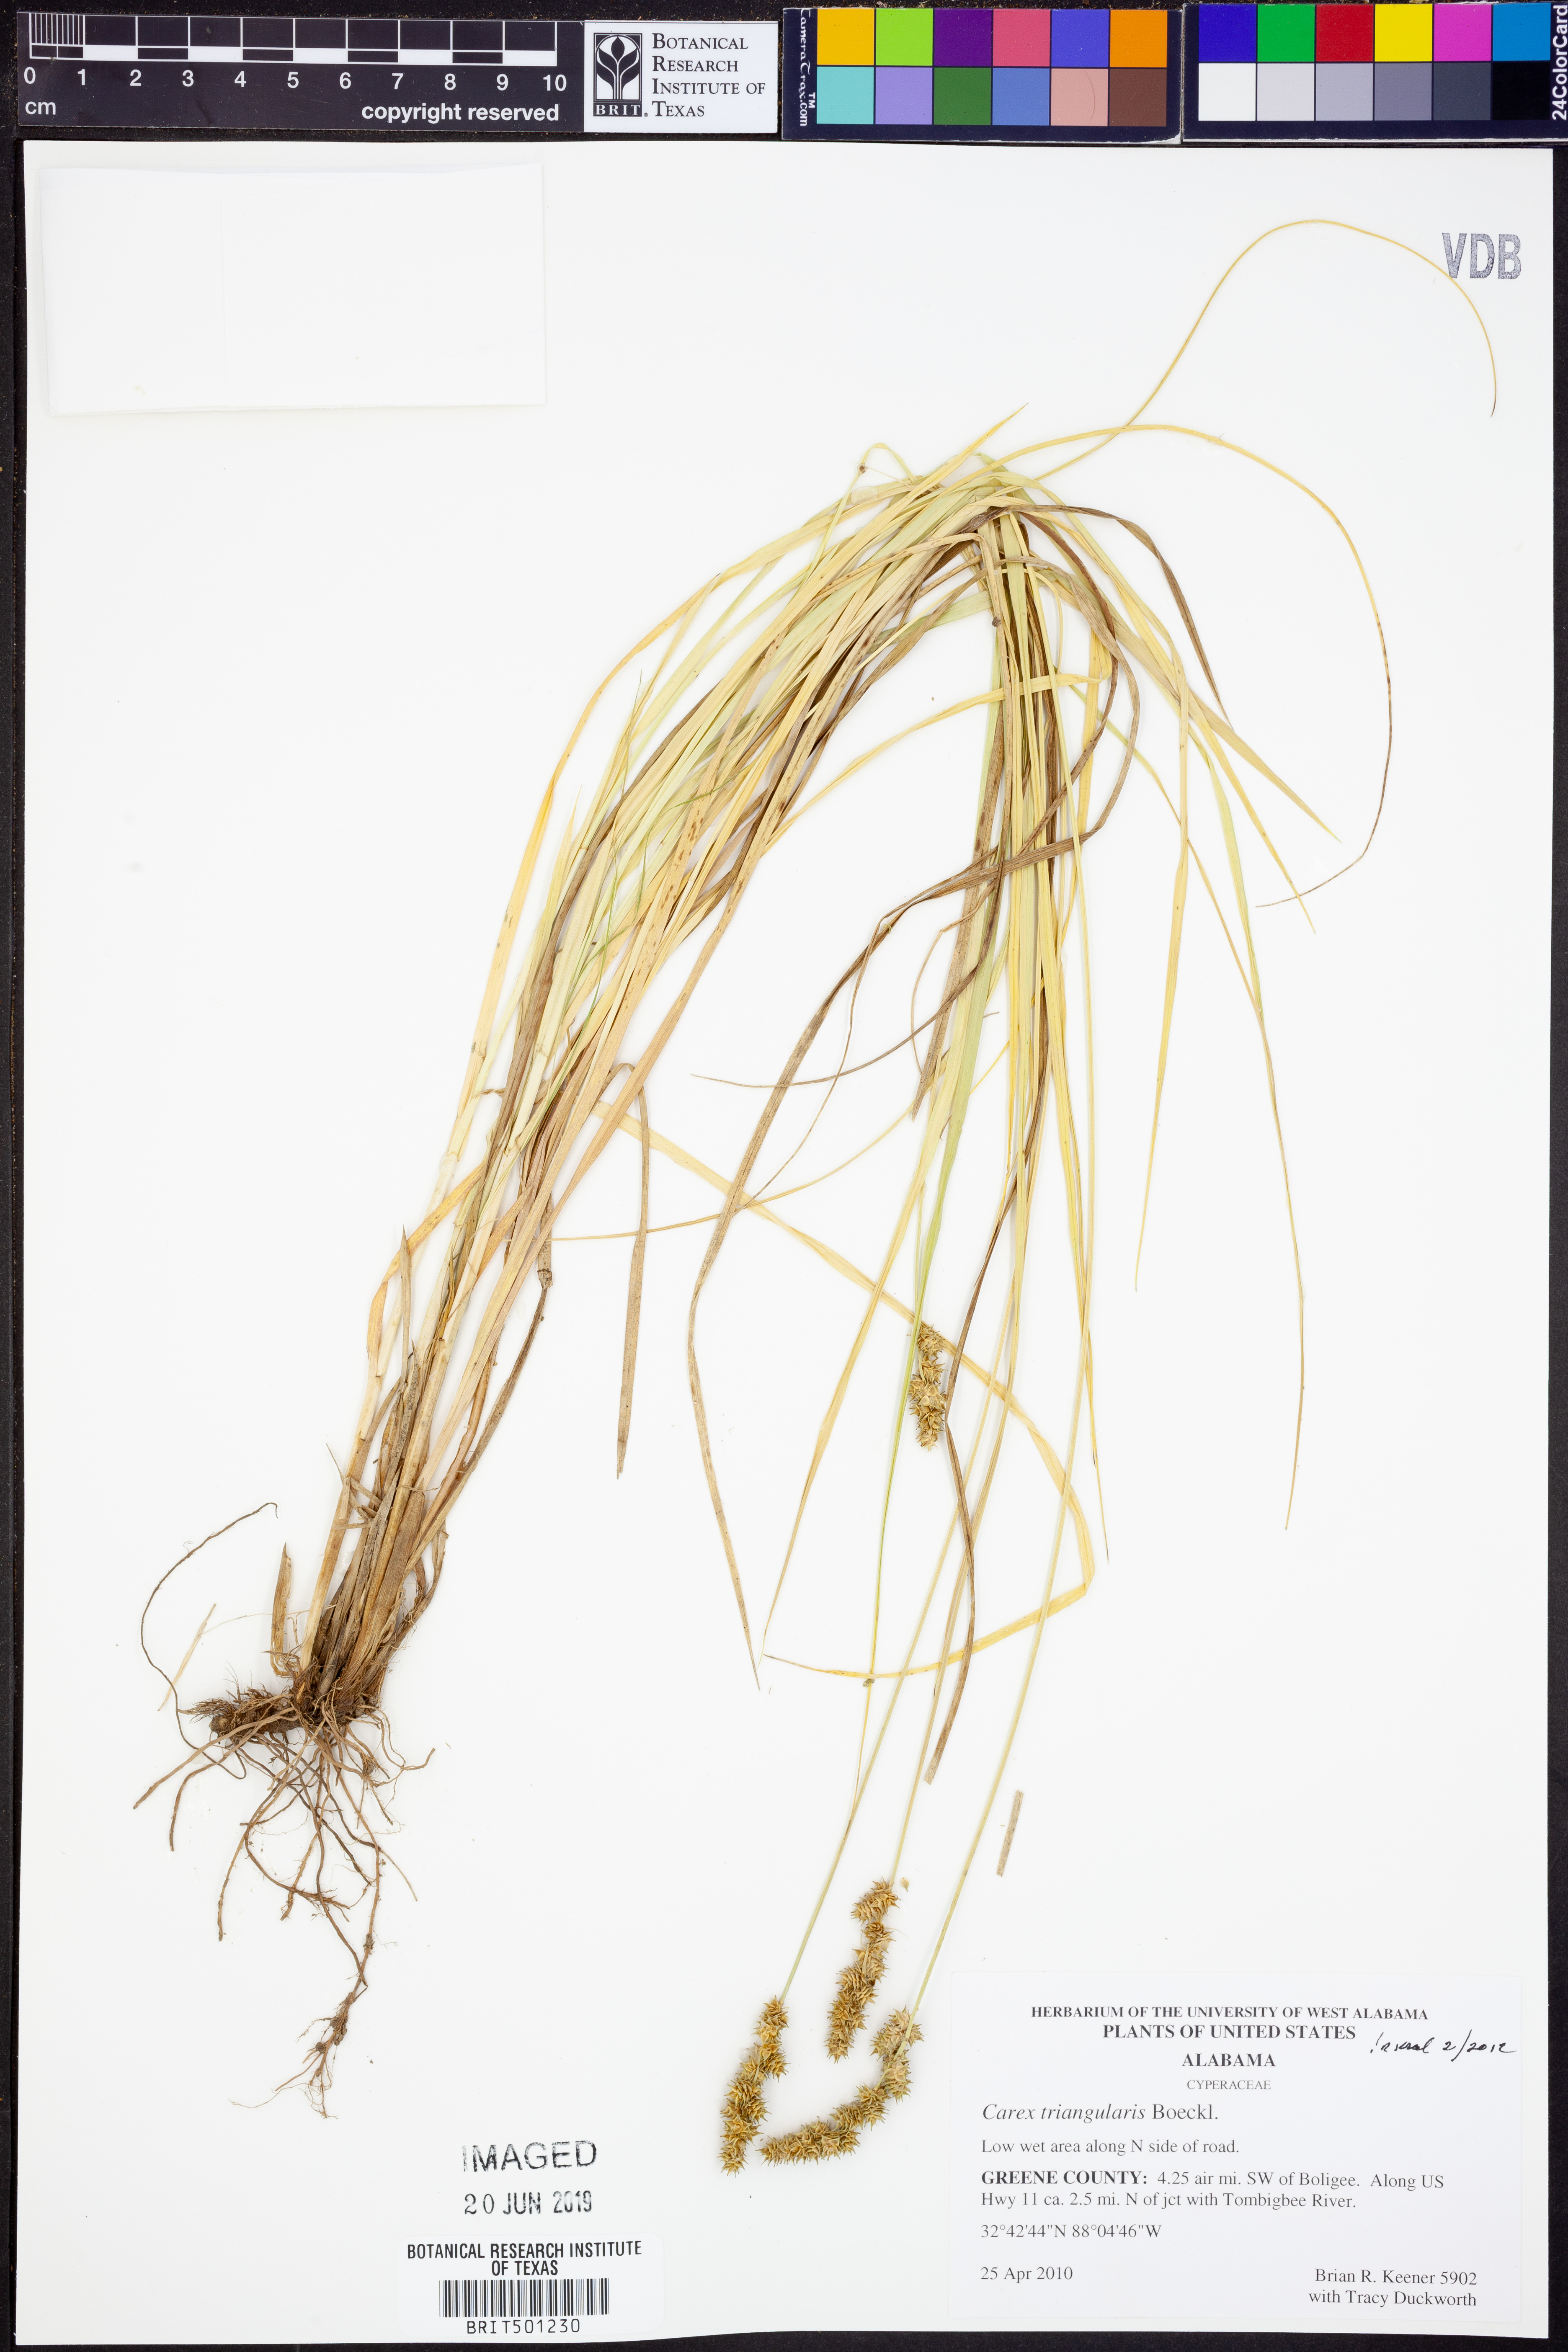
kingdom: Plantae
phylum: Tracheophyta
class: Liliopsida
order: Poales
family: Cyperaceae
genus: Carex
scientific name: Carex triangularis
